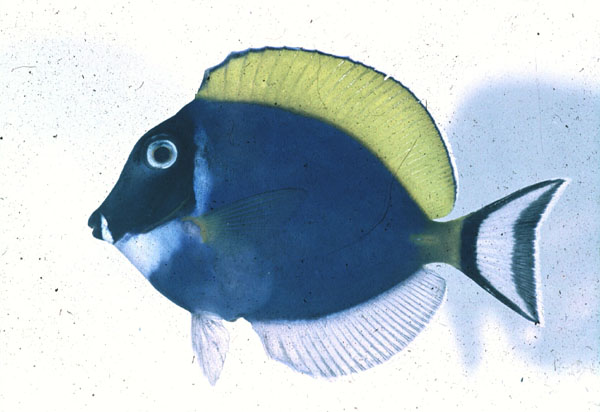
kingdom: Animalia
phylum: Chordata
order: Perciformes
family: Acanthuridae
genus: Acanthurus
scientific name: Acanthurus leucosternon
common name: Blue surgeonfish
